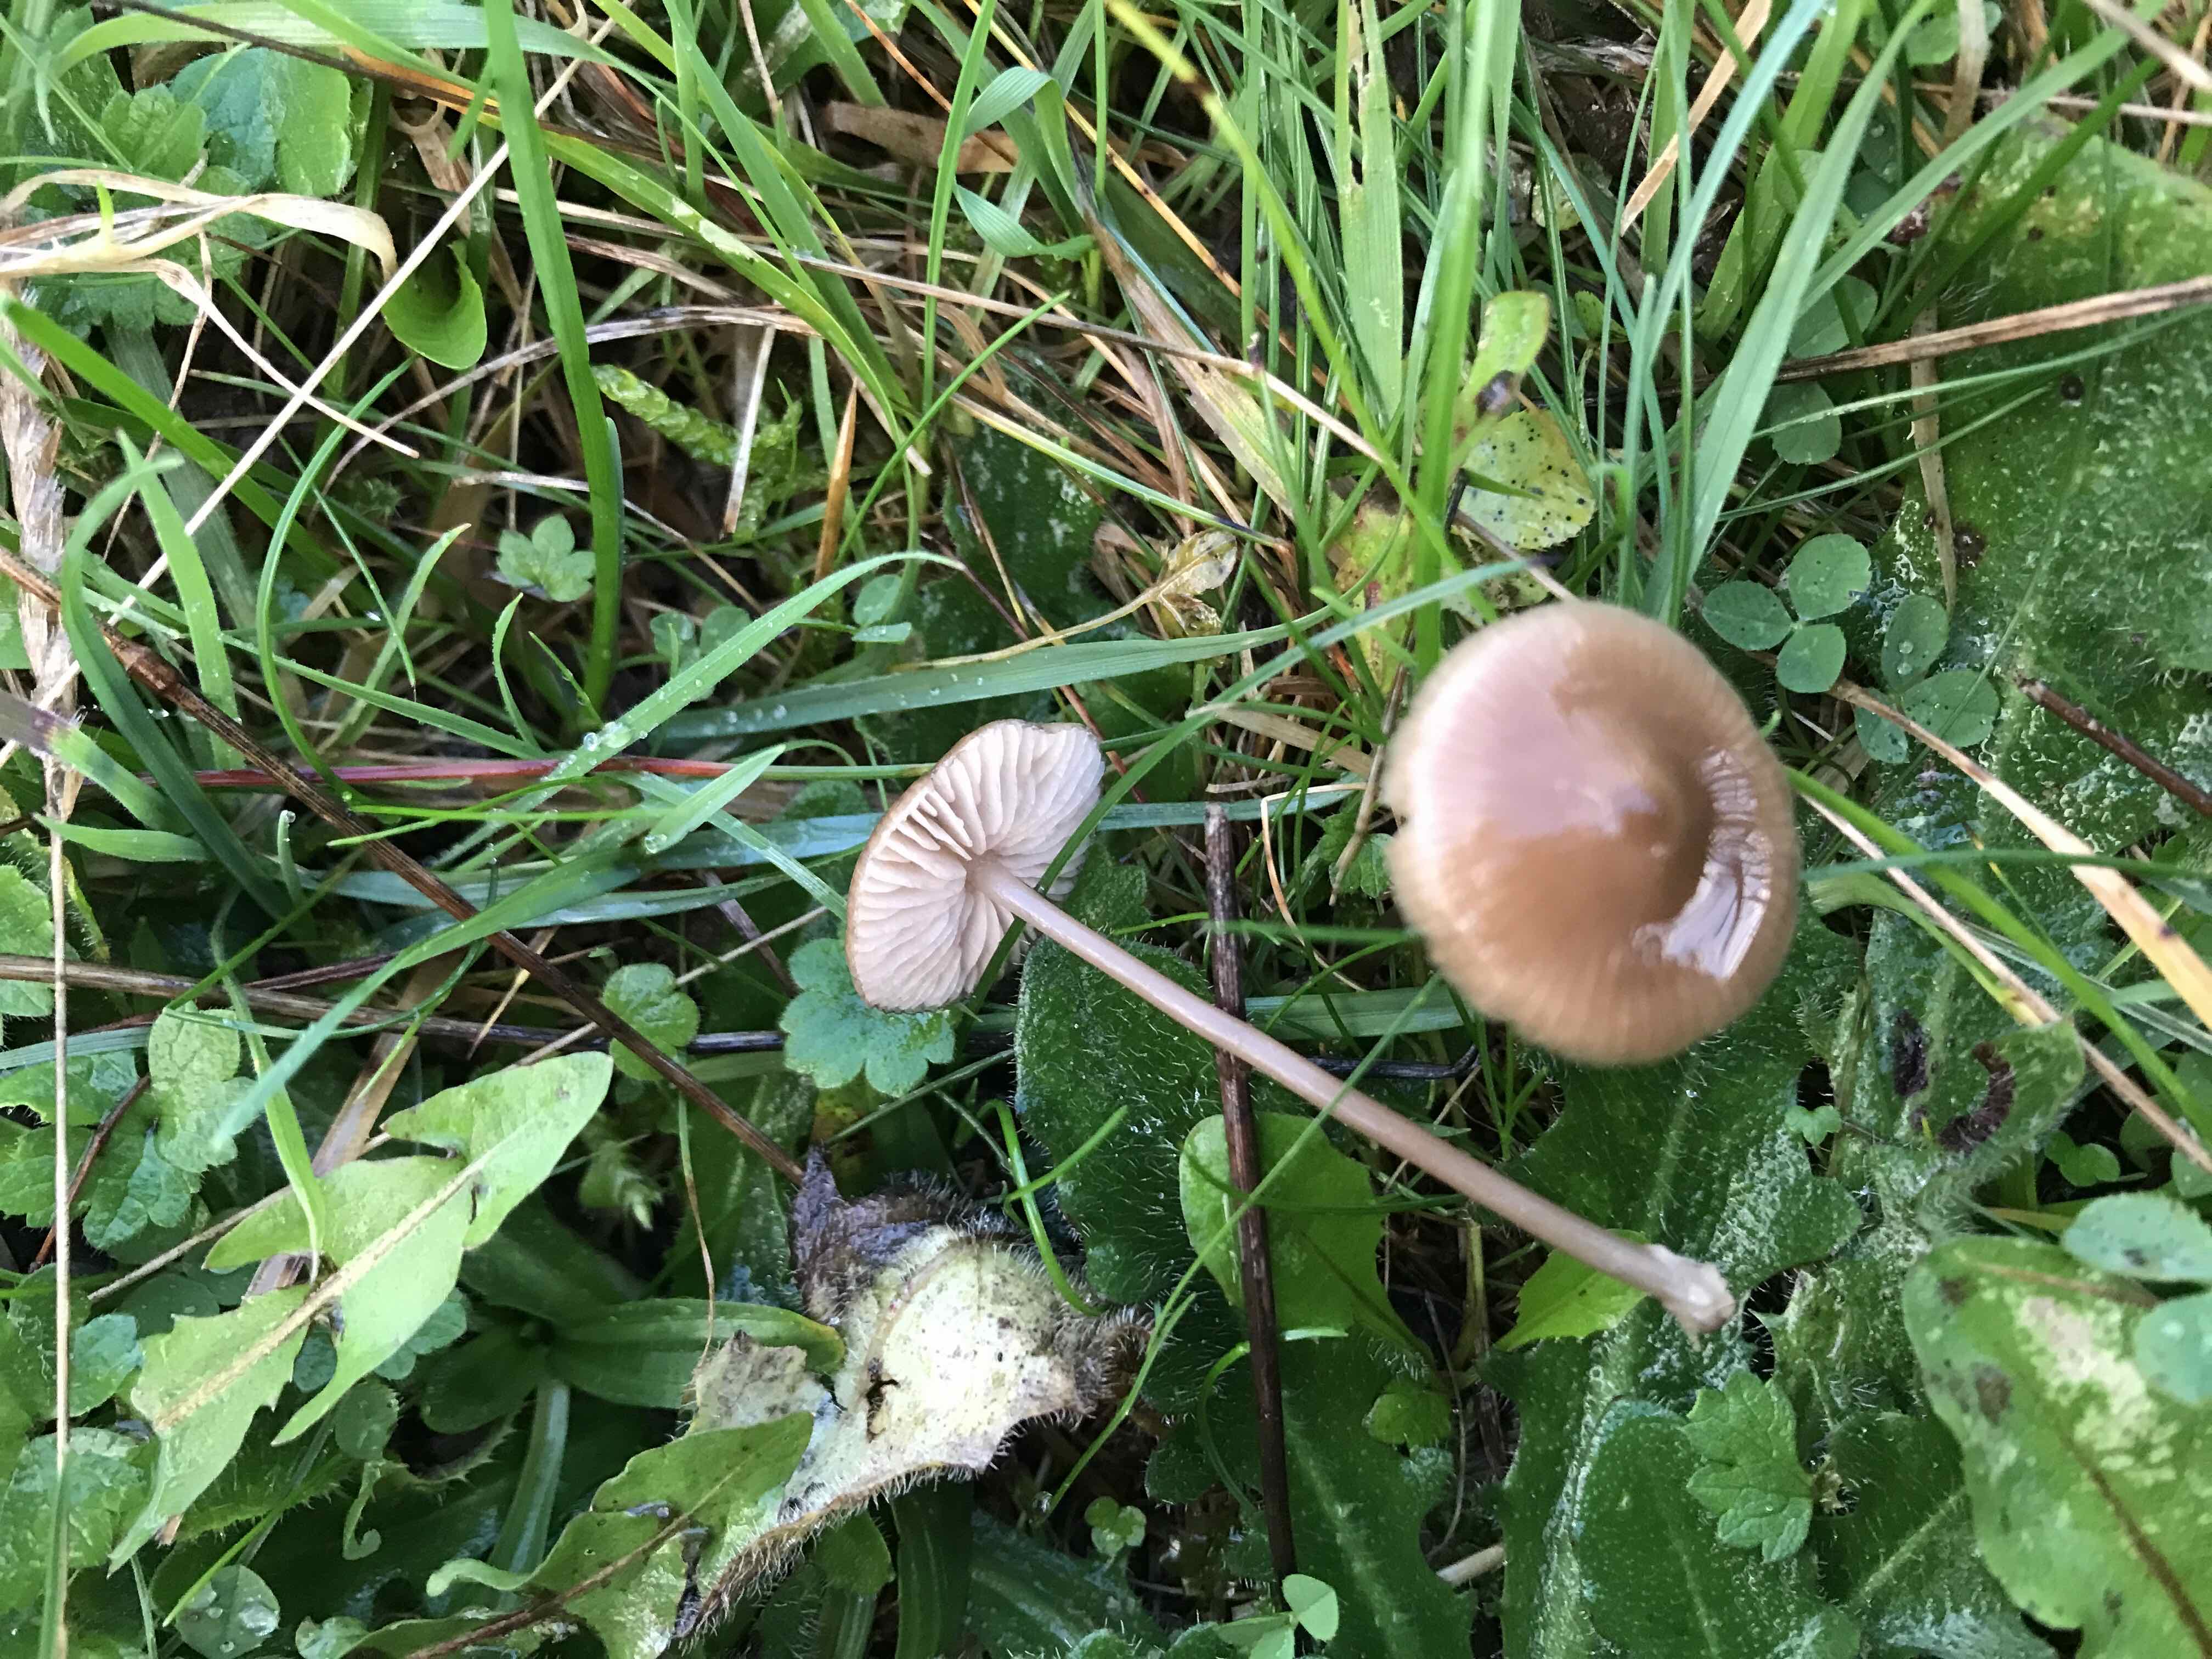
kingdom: Fungi
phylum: Basidiomycota
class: Agaricomycetes
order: Agaricales
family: Entolomataceae
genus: Entoloma
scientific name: Entoloma
